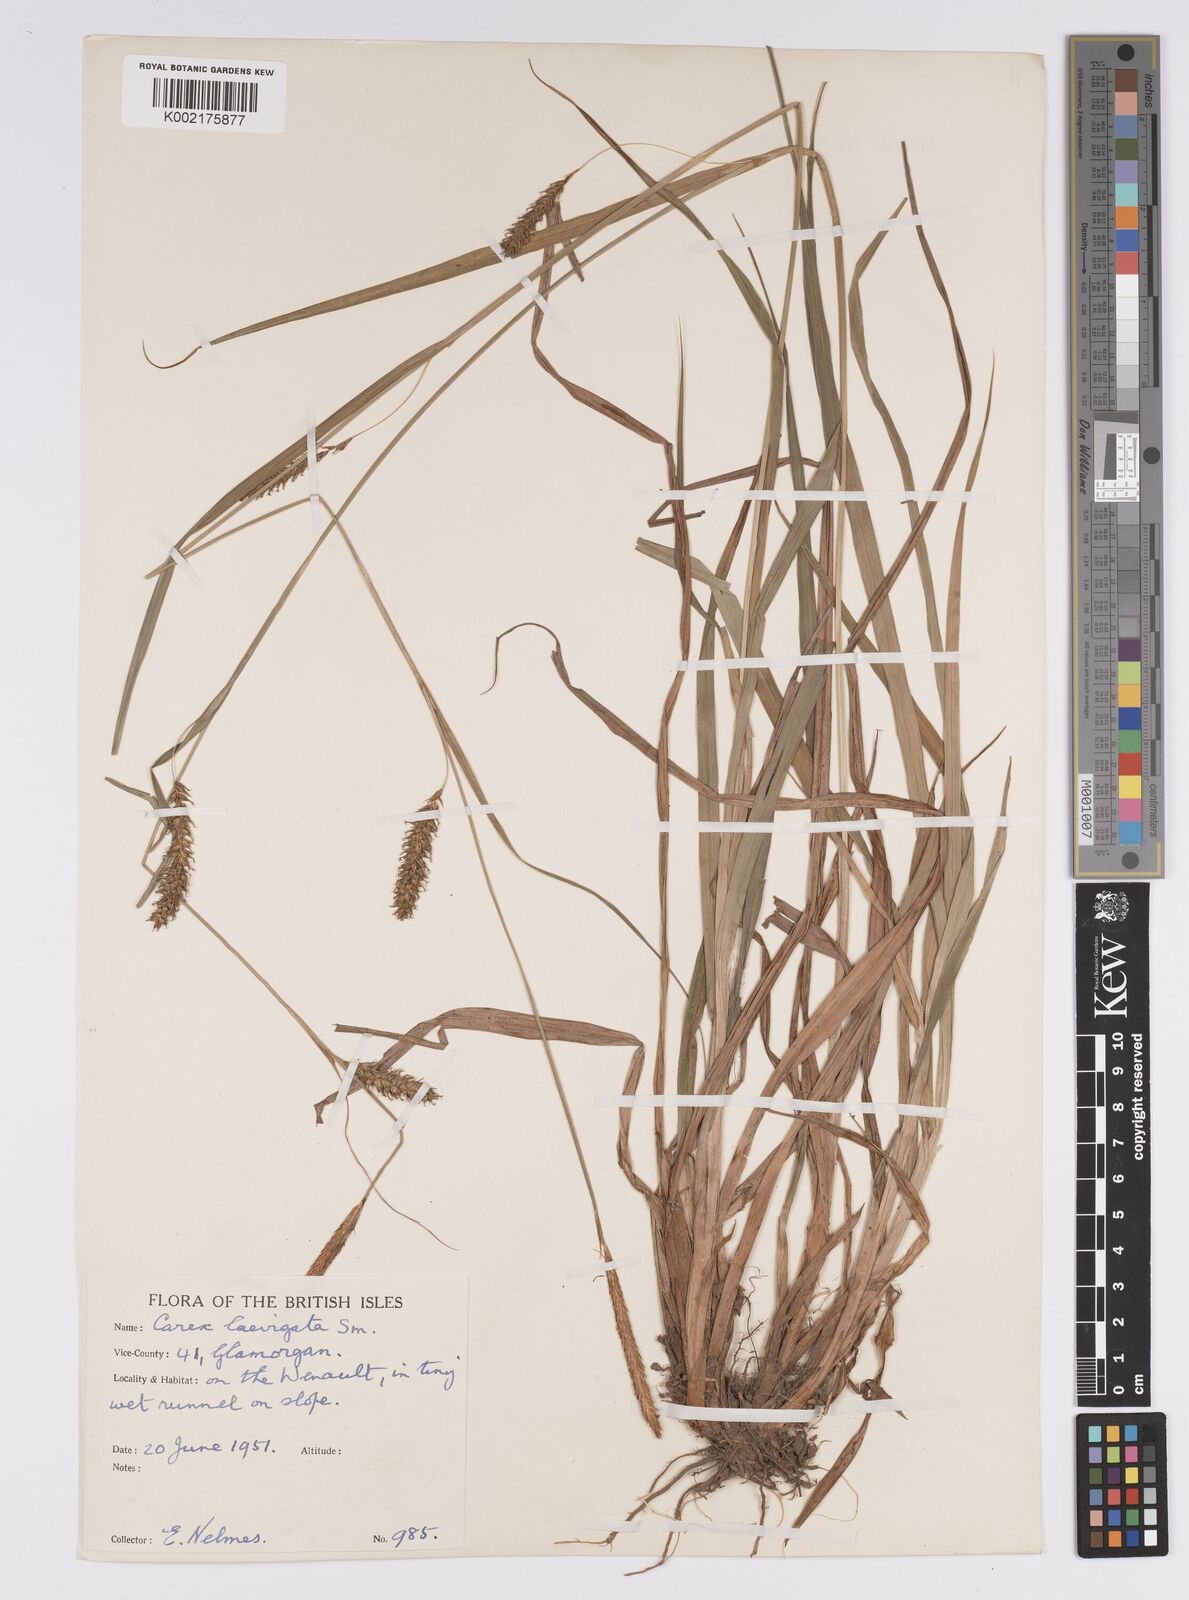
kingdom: Plantae
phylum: Tracheophyta
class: Liliopsida
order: Poales
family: Cyperaceae
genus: Carex
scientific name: Carex laevigata
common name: Smooth-stalked sedge
